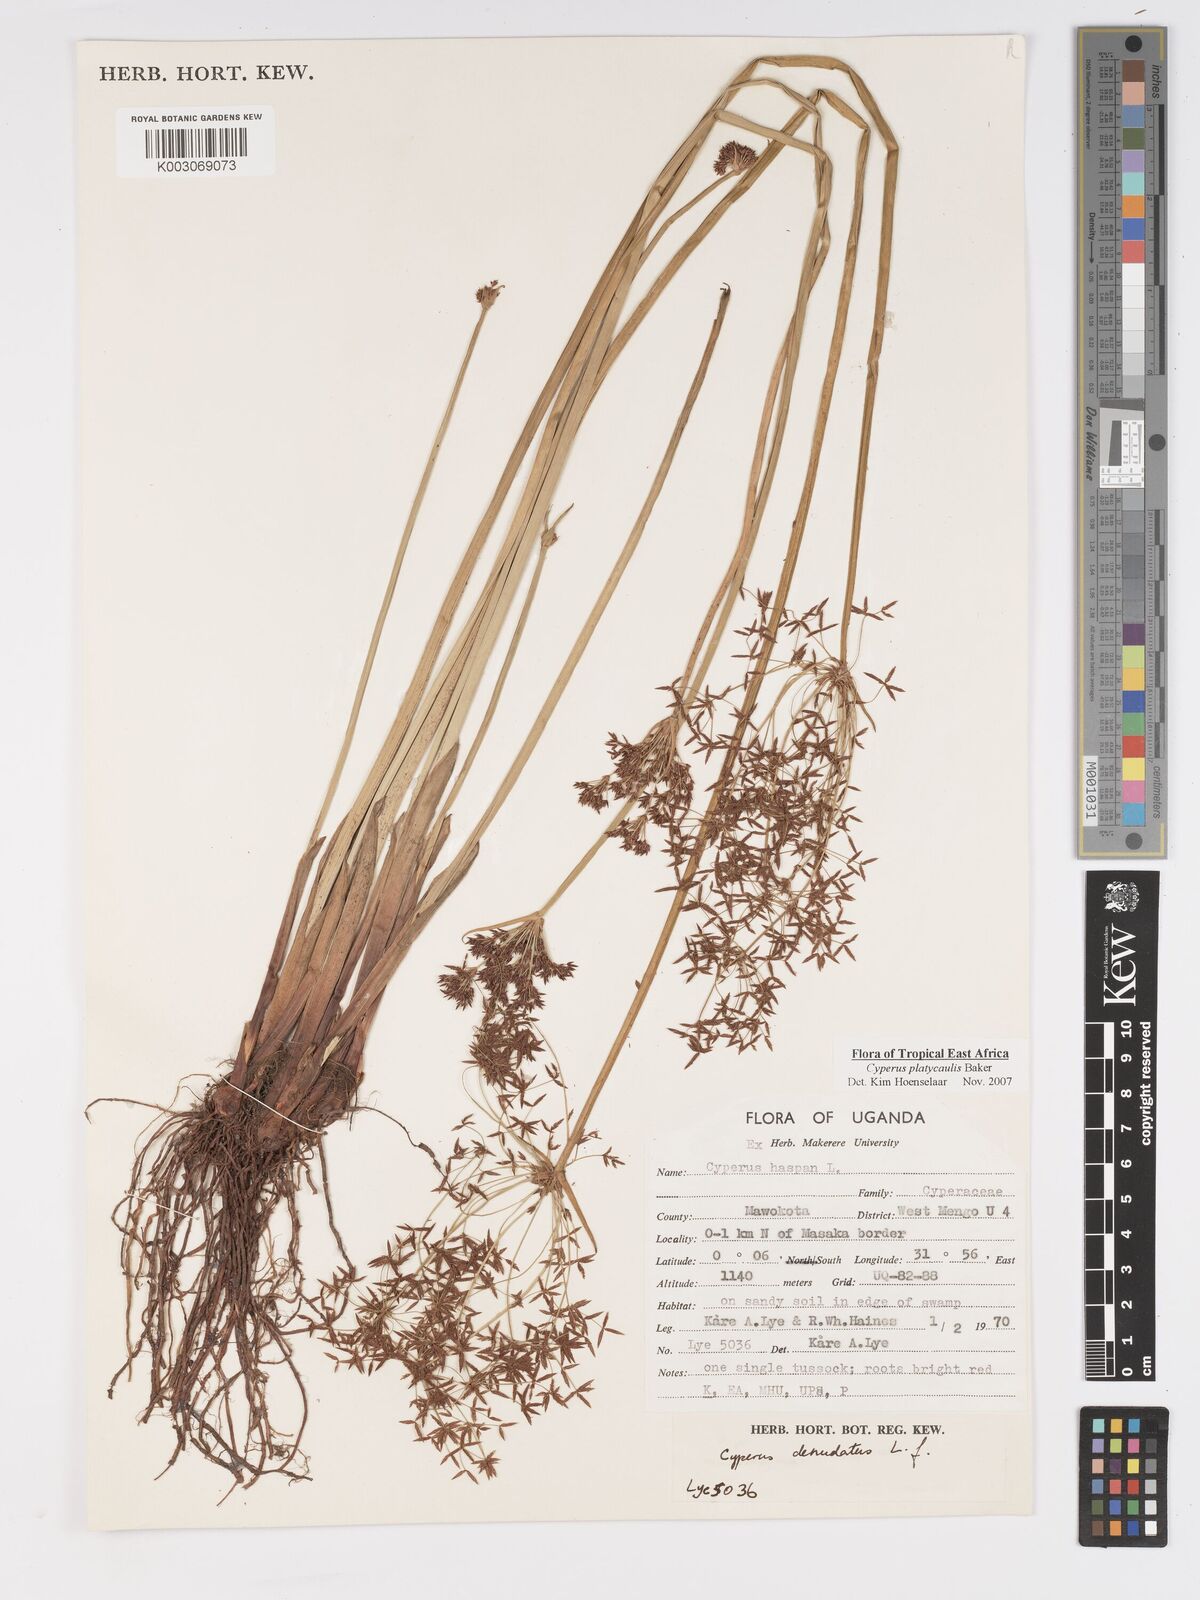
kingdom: Plantae
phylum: Tracheophyta
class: Liliopsida
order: Poales
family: Cyperaceae
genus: Cyperus
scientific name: Cyperus platycaulis
